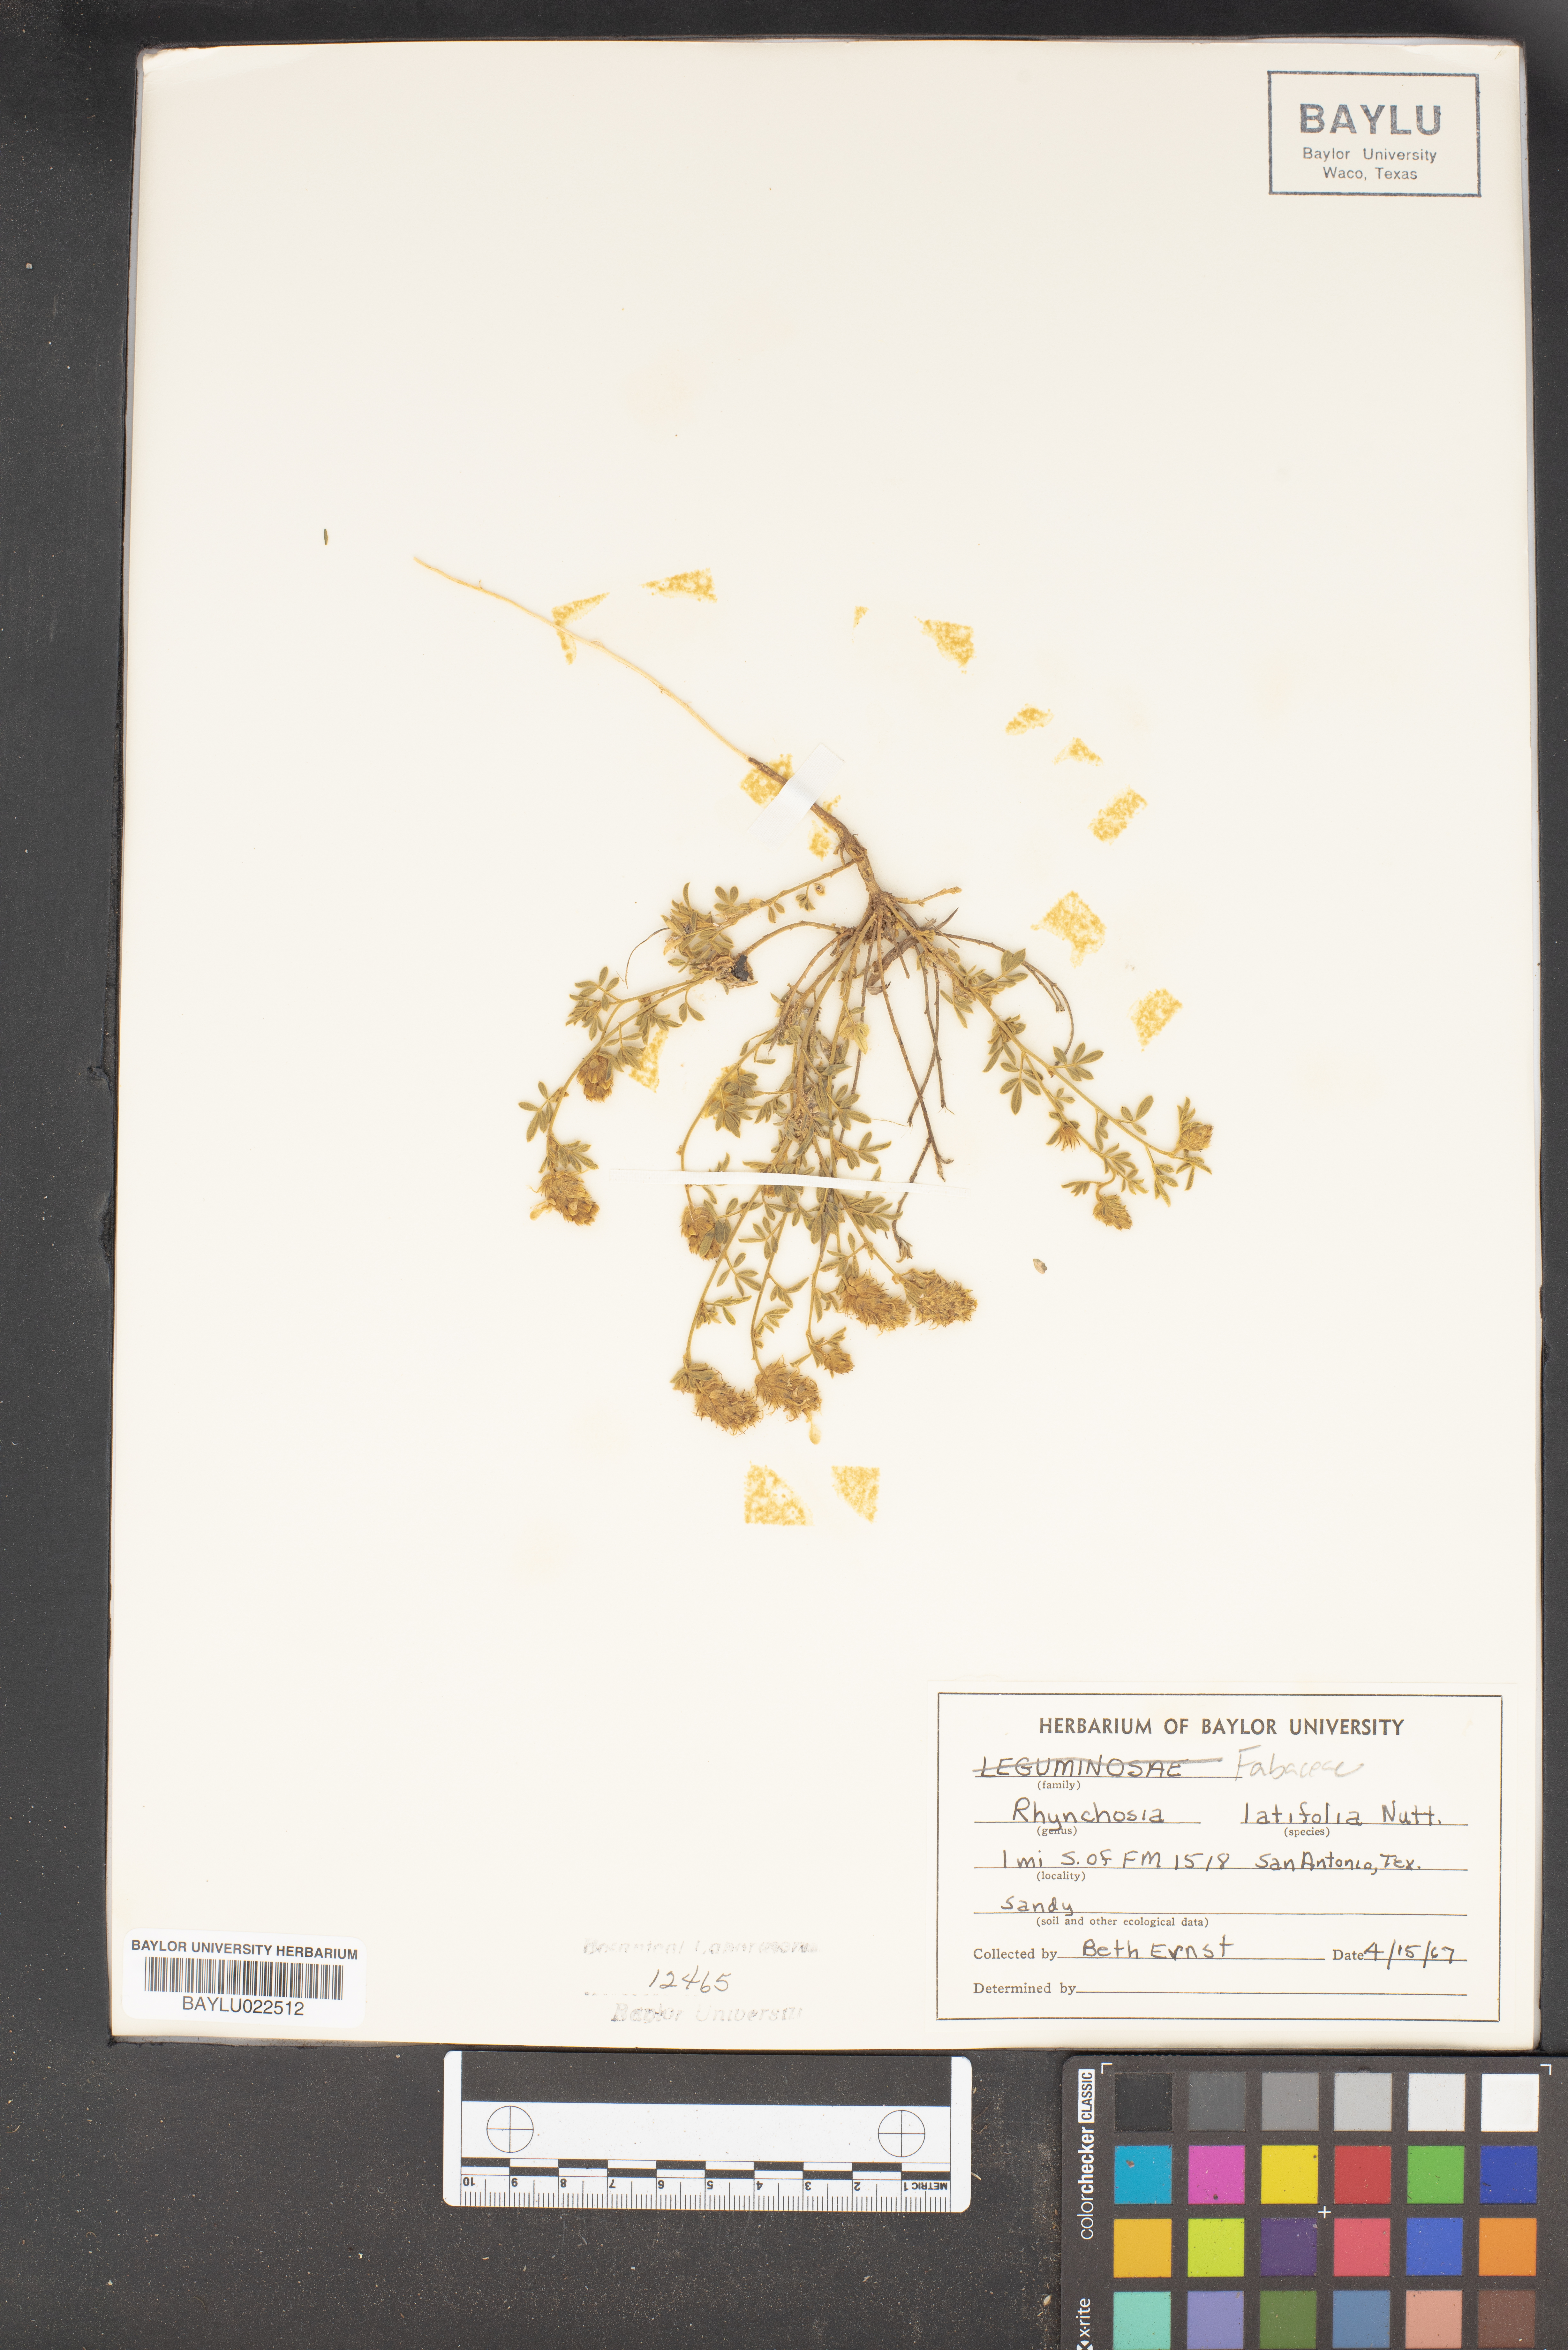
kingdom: Plantae
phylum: Tracheophyta
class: Magnoliopsida
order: Fabales
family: Fabaceae
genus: Rhynchosia
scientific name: Rhynchosia latifolia
